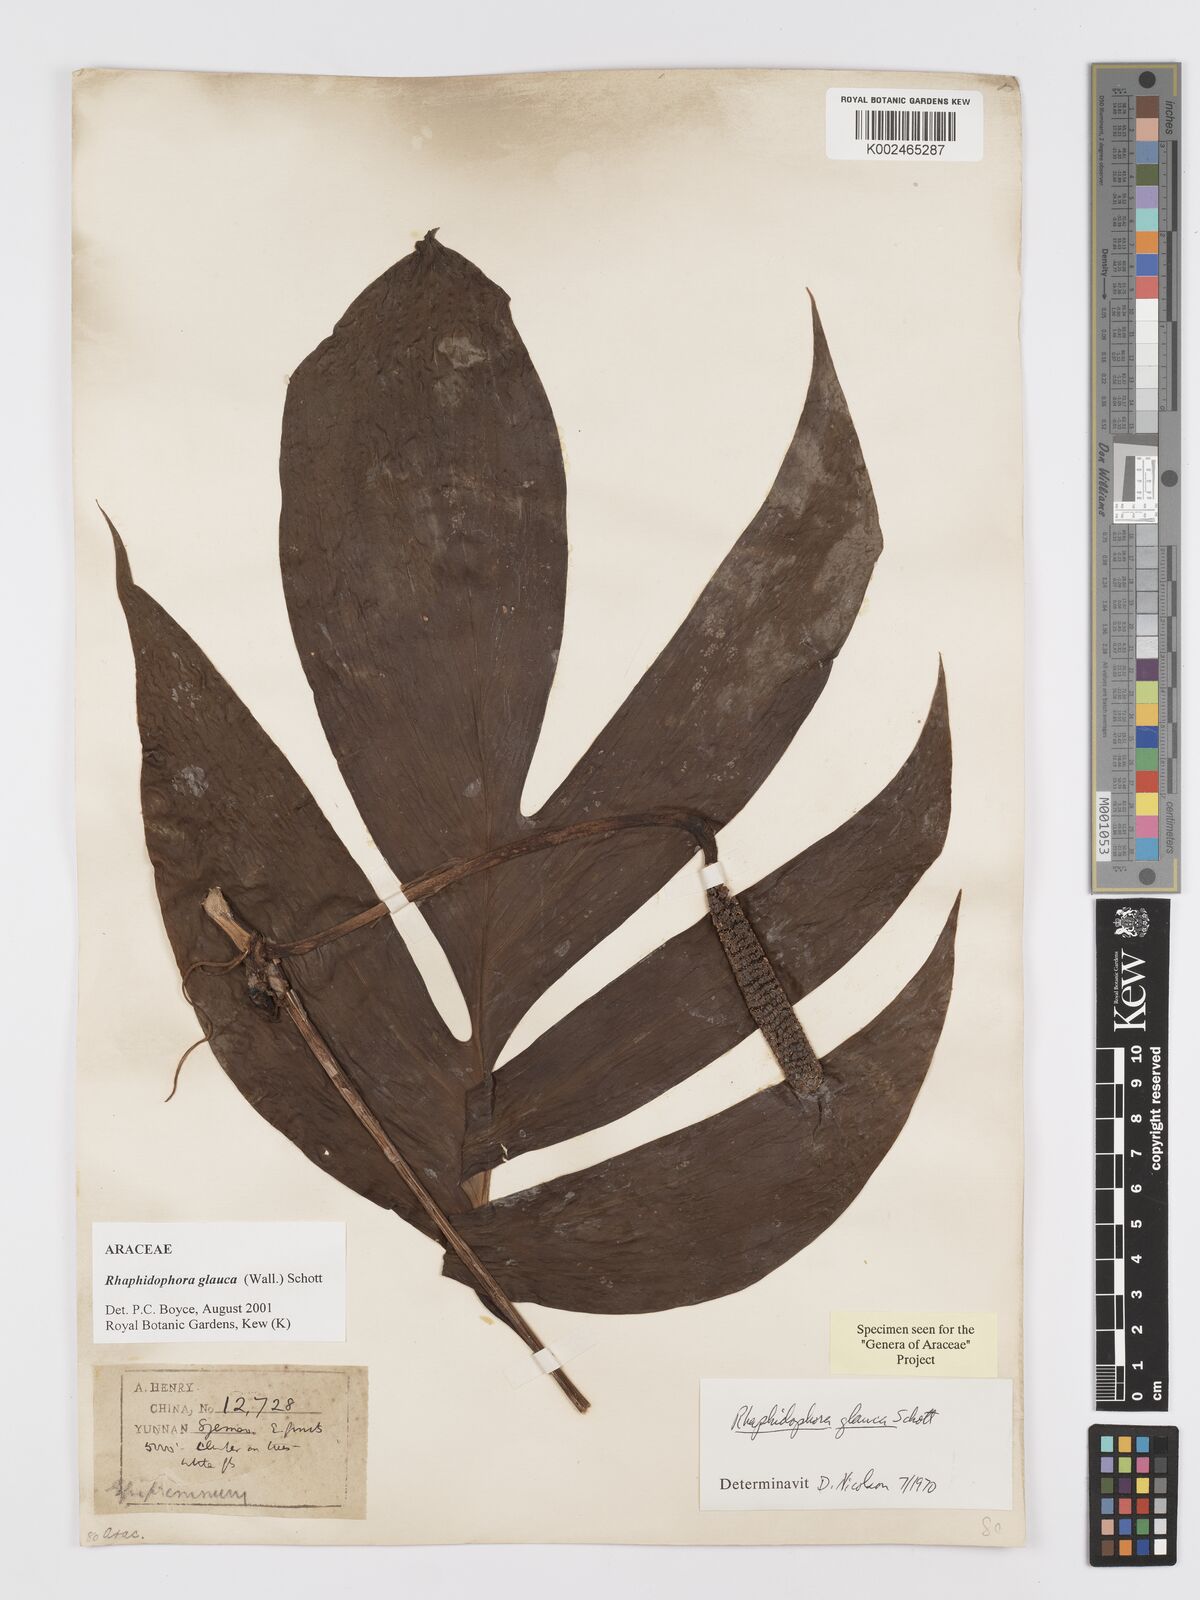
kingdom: Plantae
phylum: Tracheophyta
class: Liliopsida
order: Alismatales
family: Araceae
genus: Rhaphidophora
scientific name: Rhaphidophora glauca
